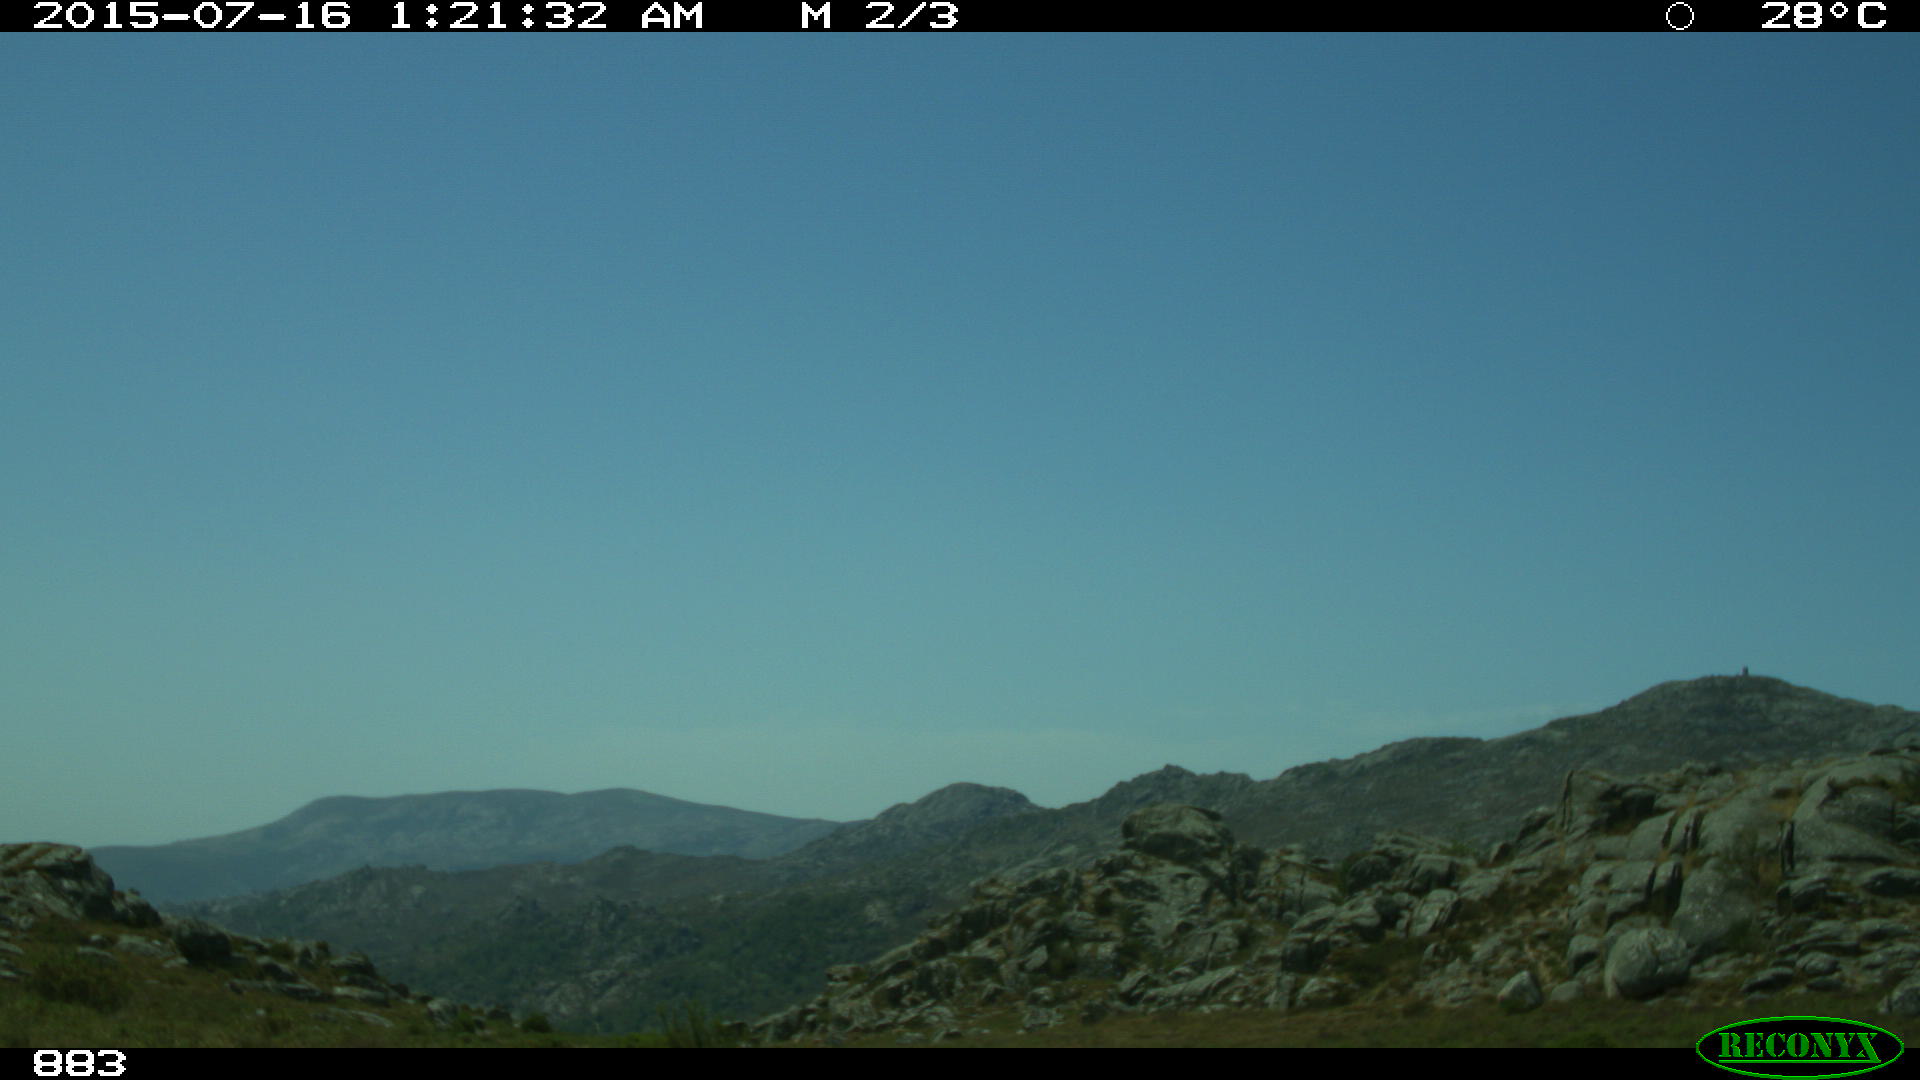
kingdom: Animalia
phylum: Chordata
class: Mammalia
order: Perissodactyla
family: Equidae
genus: Equus
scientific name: Equus caballus
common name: Horse
